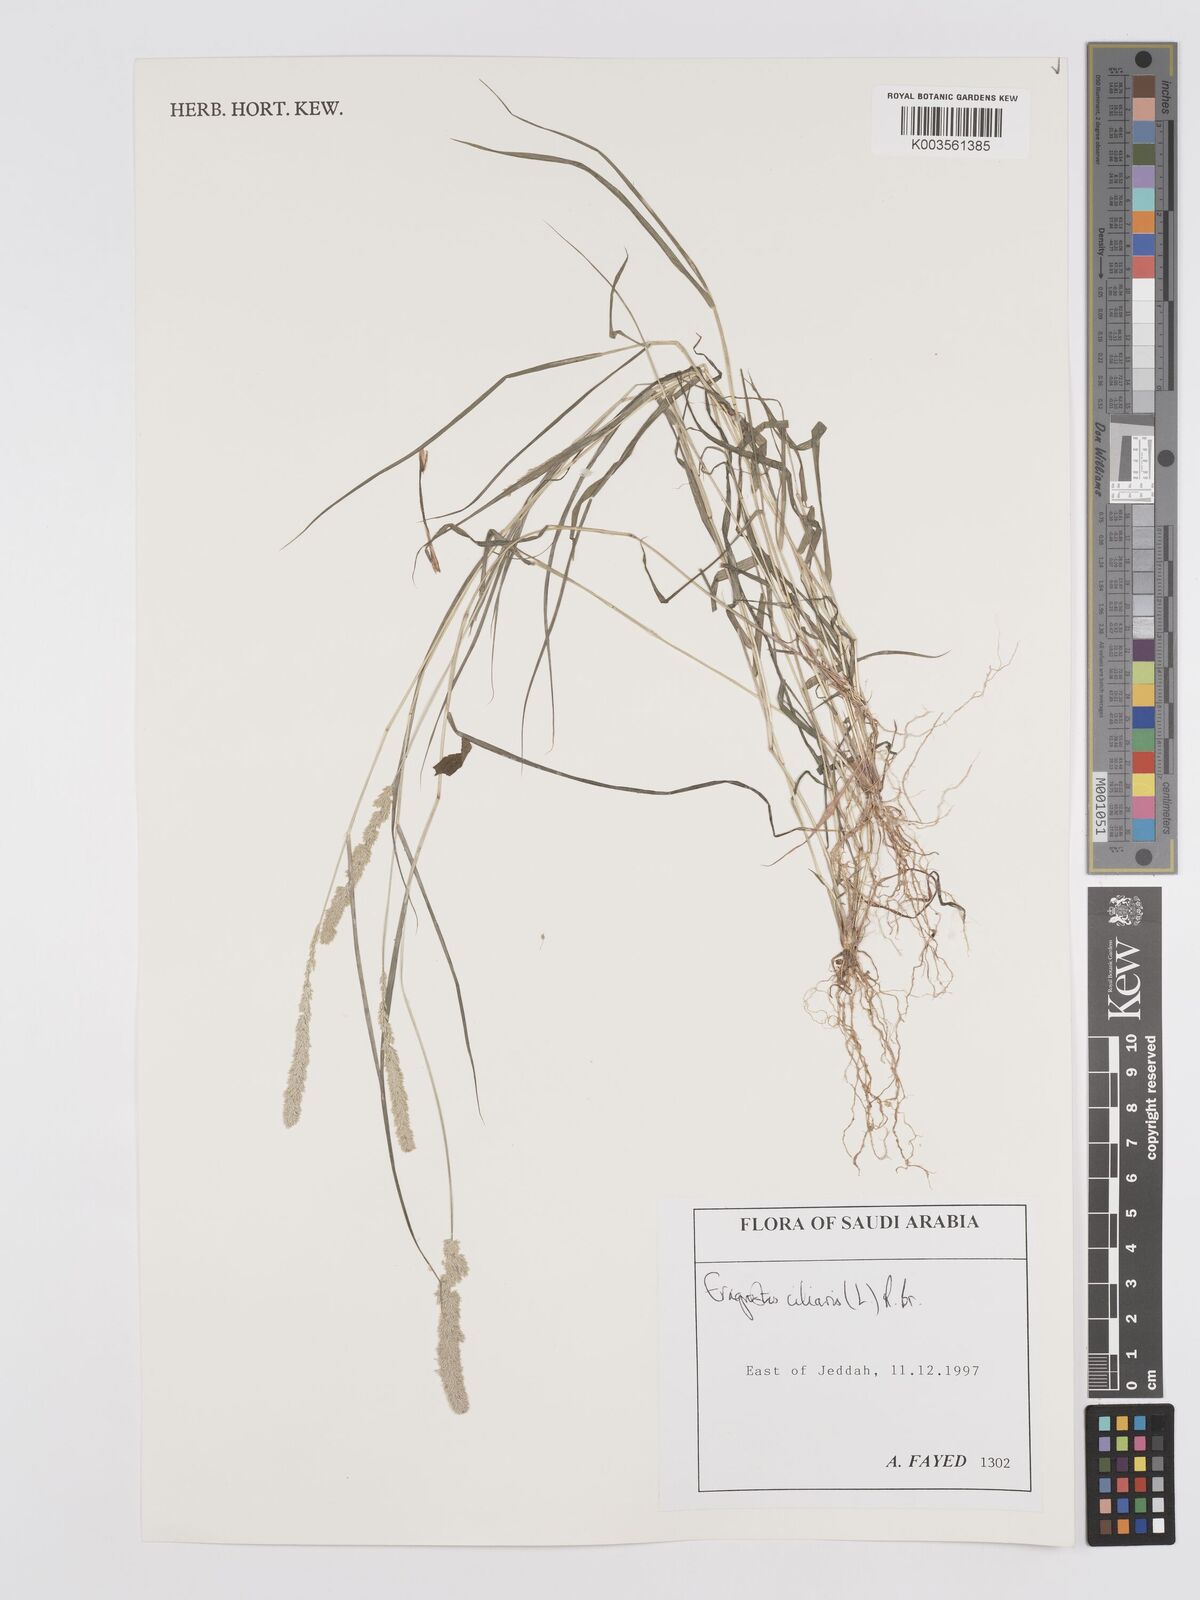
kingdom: Plantae
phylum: Tracheophyta
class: Liliopsida
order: Poales
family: Poaceae
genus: Eragrostis
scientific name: Eragrostis ciliaris
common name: Gophertail lovegrass
